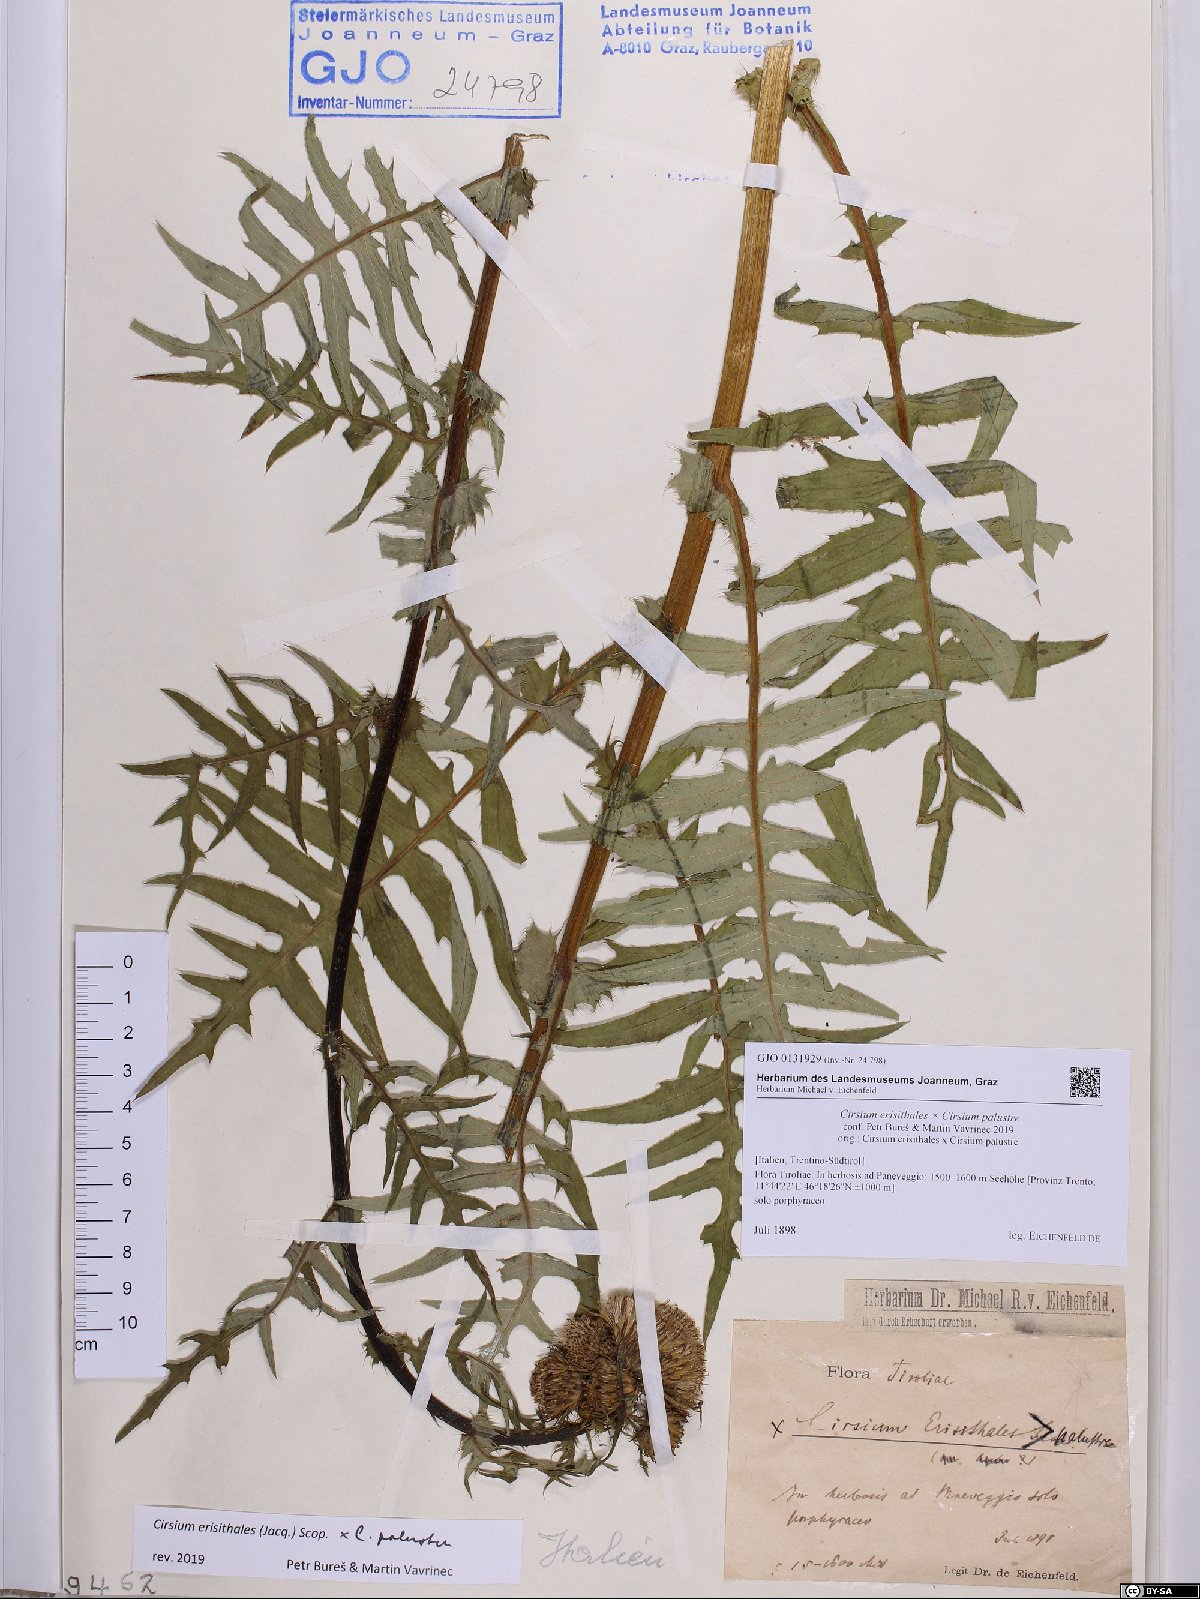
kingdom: Plantae
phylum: Tracheophyta
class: Magnoliopsida
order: Asterales
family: Asteraceae
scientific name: Asteraceae
